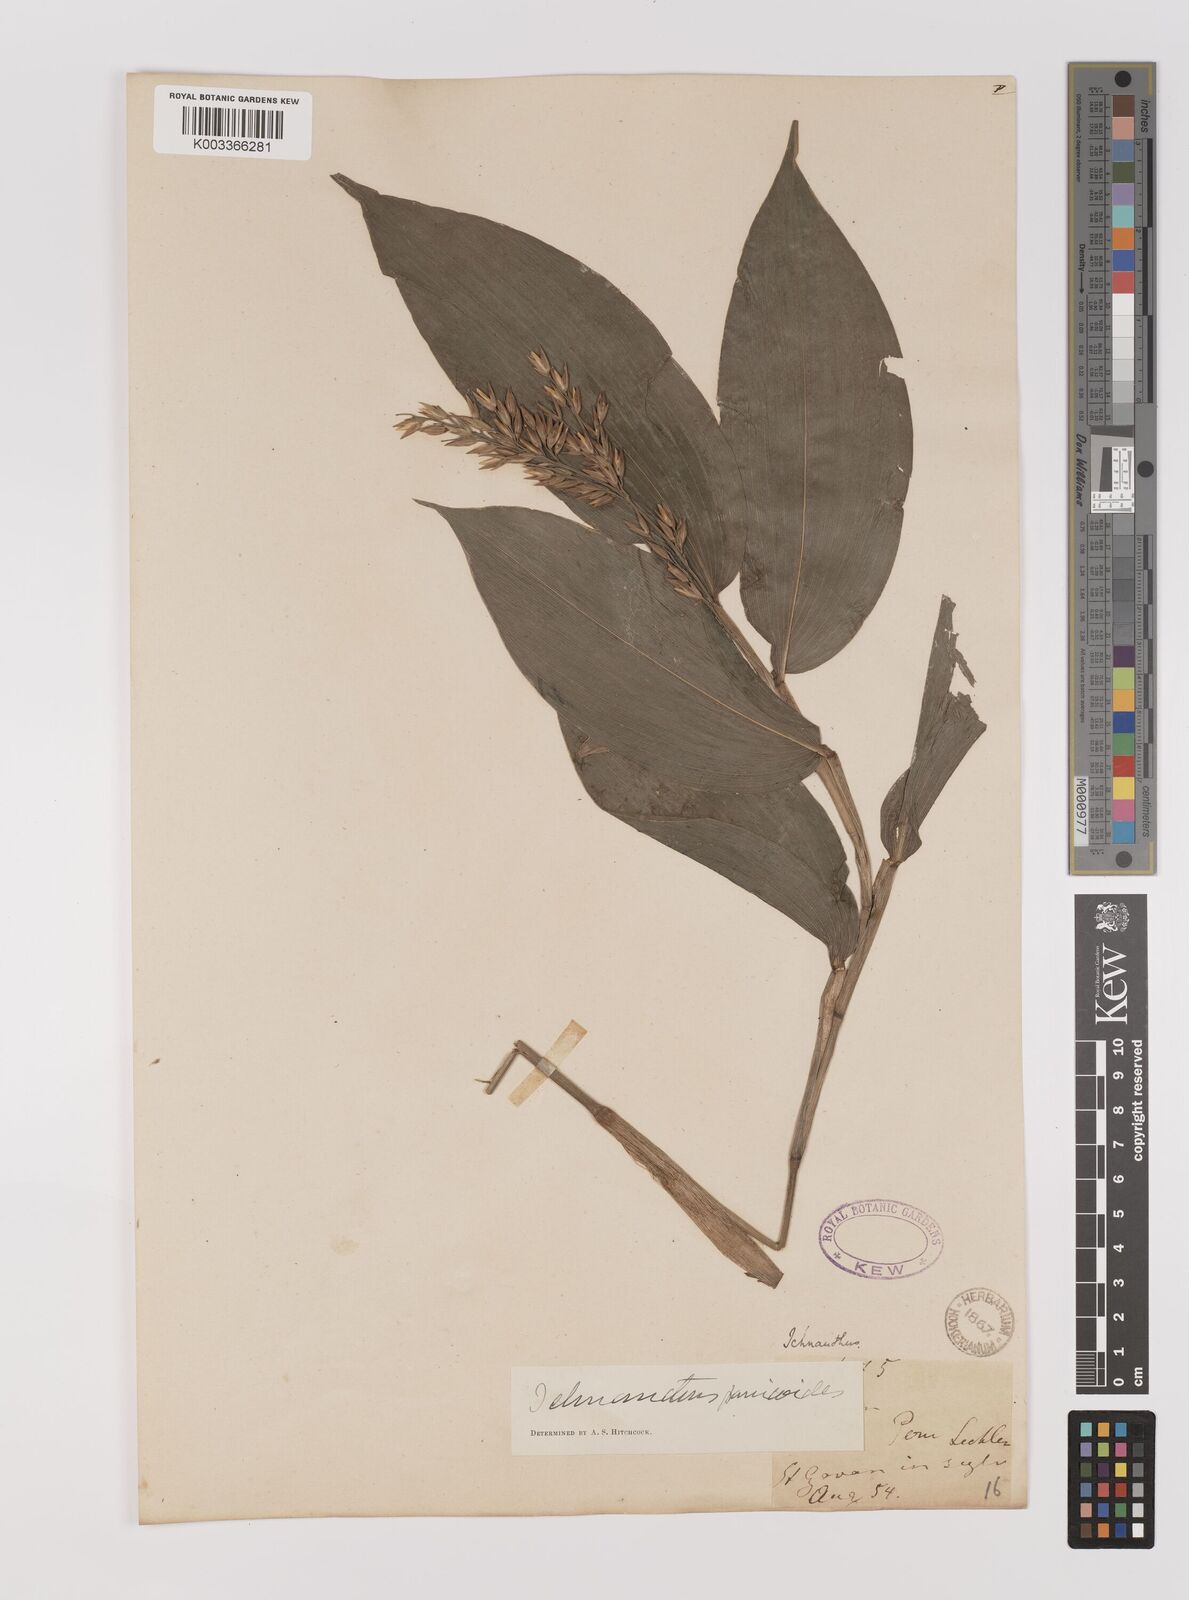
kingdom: Plantae
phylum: Tracheophyta
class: Liliopsida
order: Poales
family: Poaceae
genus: Ichnanthus
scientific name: Ichnanthus panicoides
